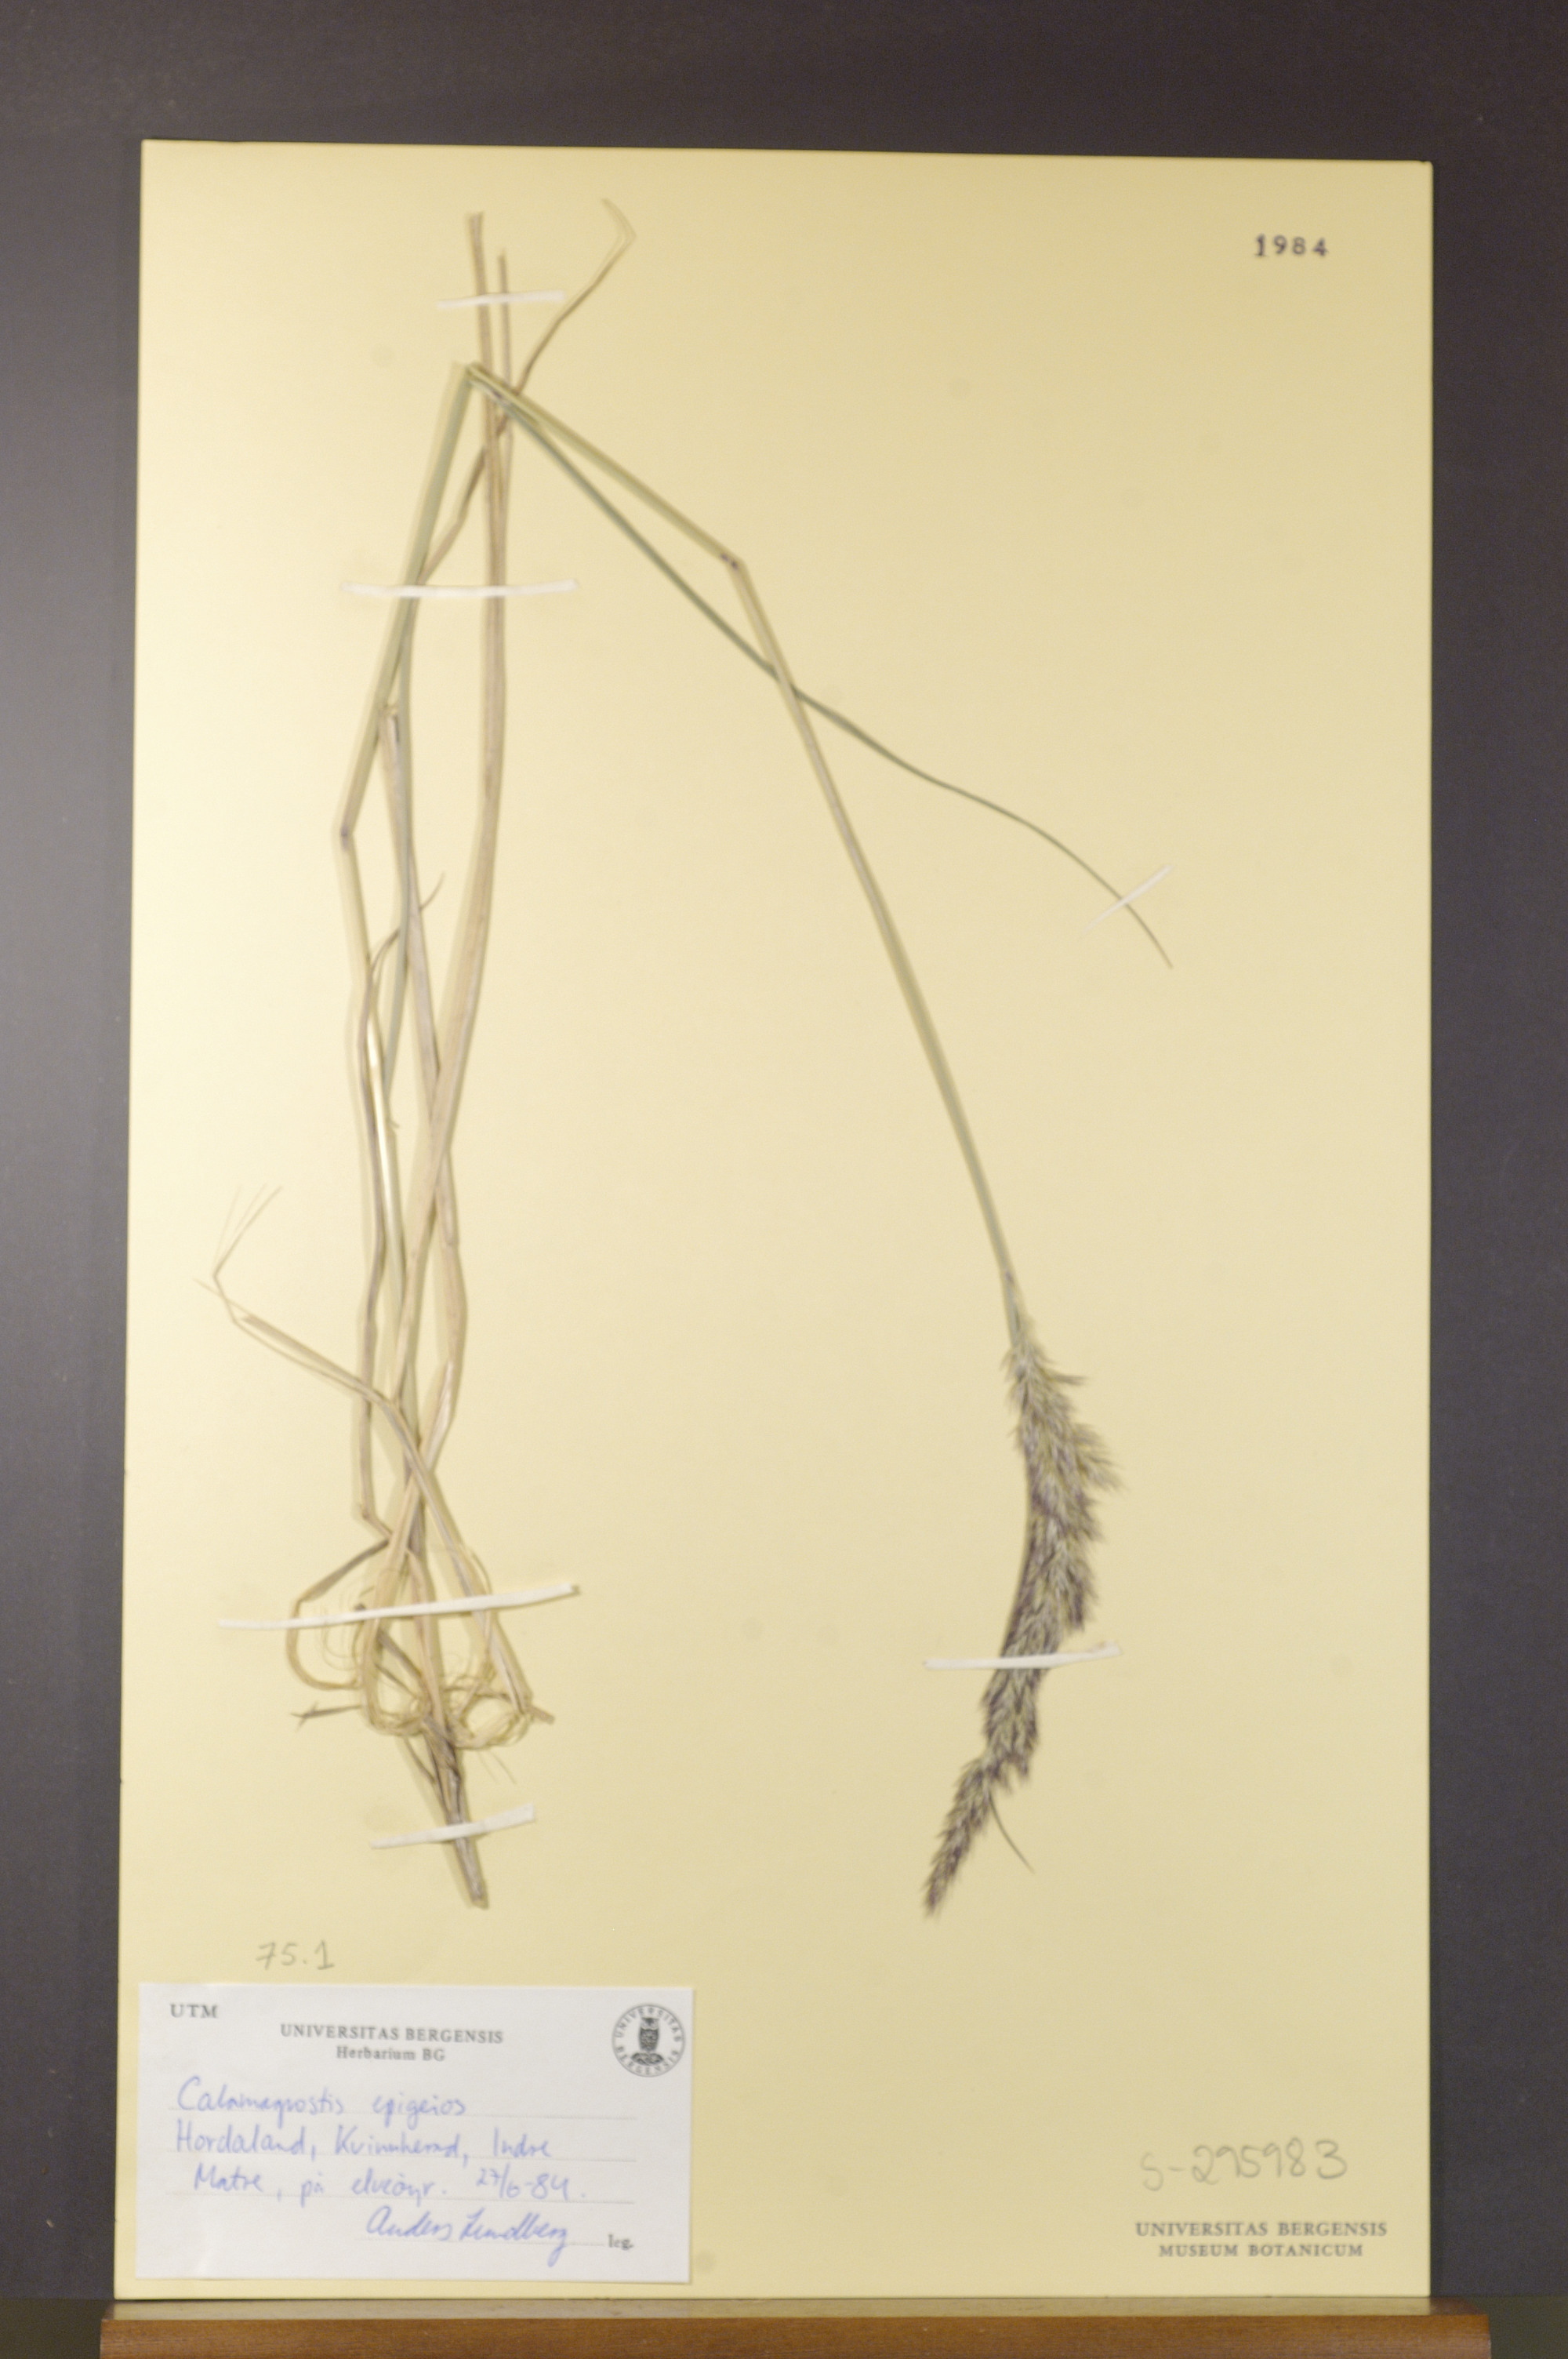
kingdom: Plantae
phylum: Tracheophyta
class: Liliopsida
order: Poales
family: Poaceae
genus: Calamagrostis
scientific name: Calamagrostis epigejos
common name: Wood small-reed
